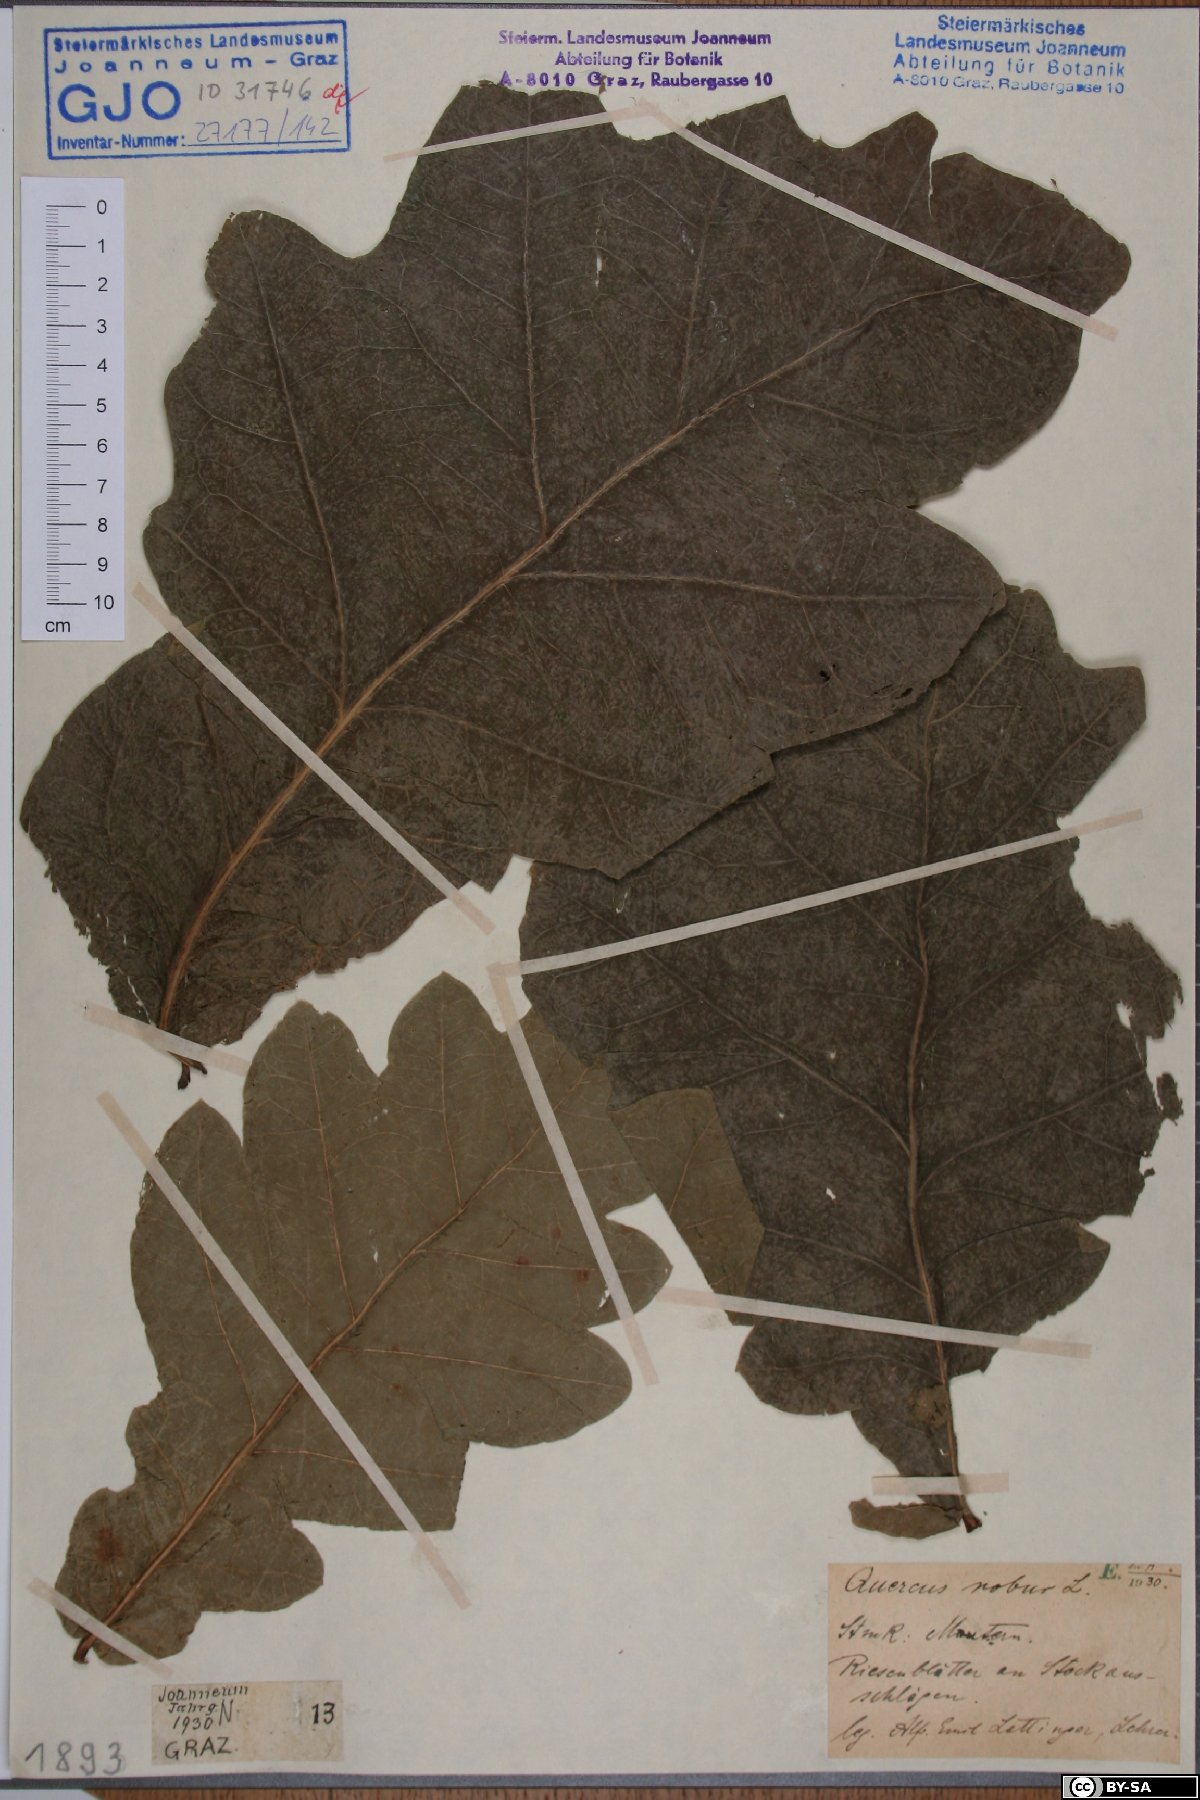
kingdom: Plantae
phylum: Tracheophyta
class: Magnoliopsida
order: Fagales
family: Fagaceae
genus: Quercus
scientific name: Quercus robur
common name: Pedunculate oak
